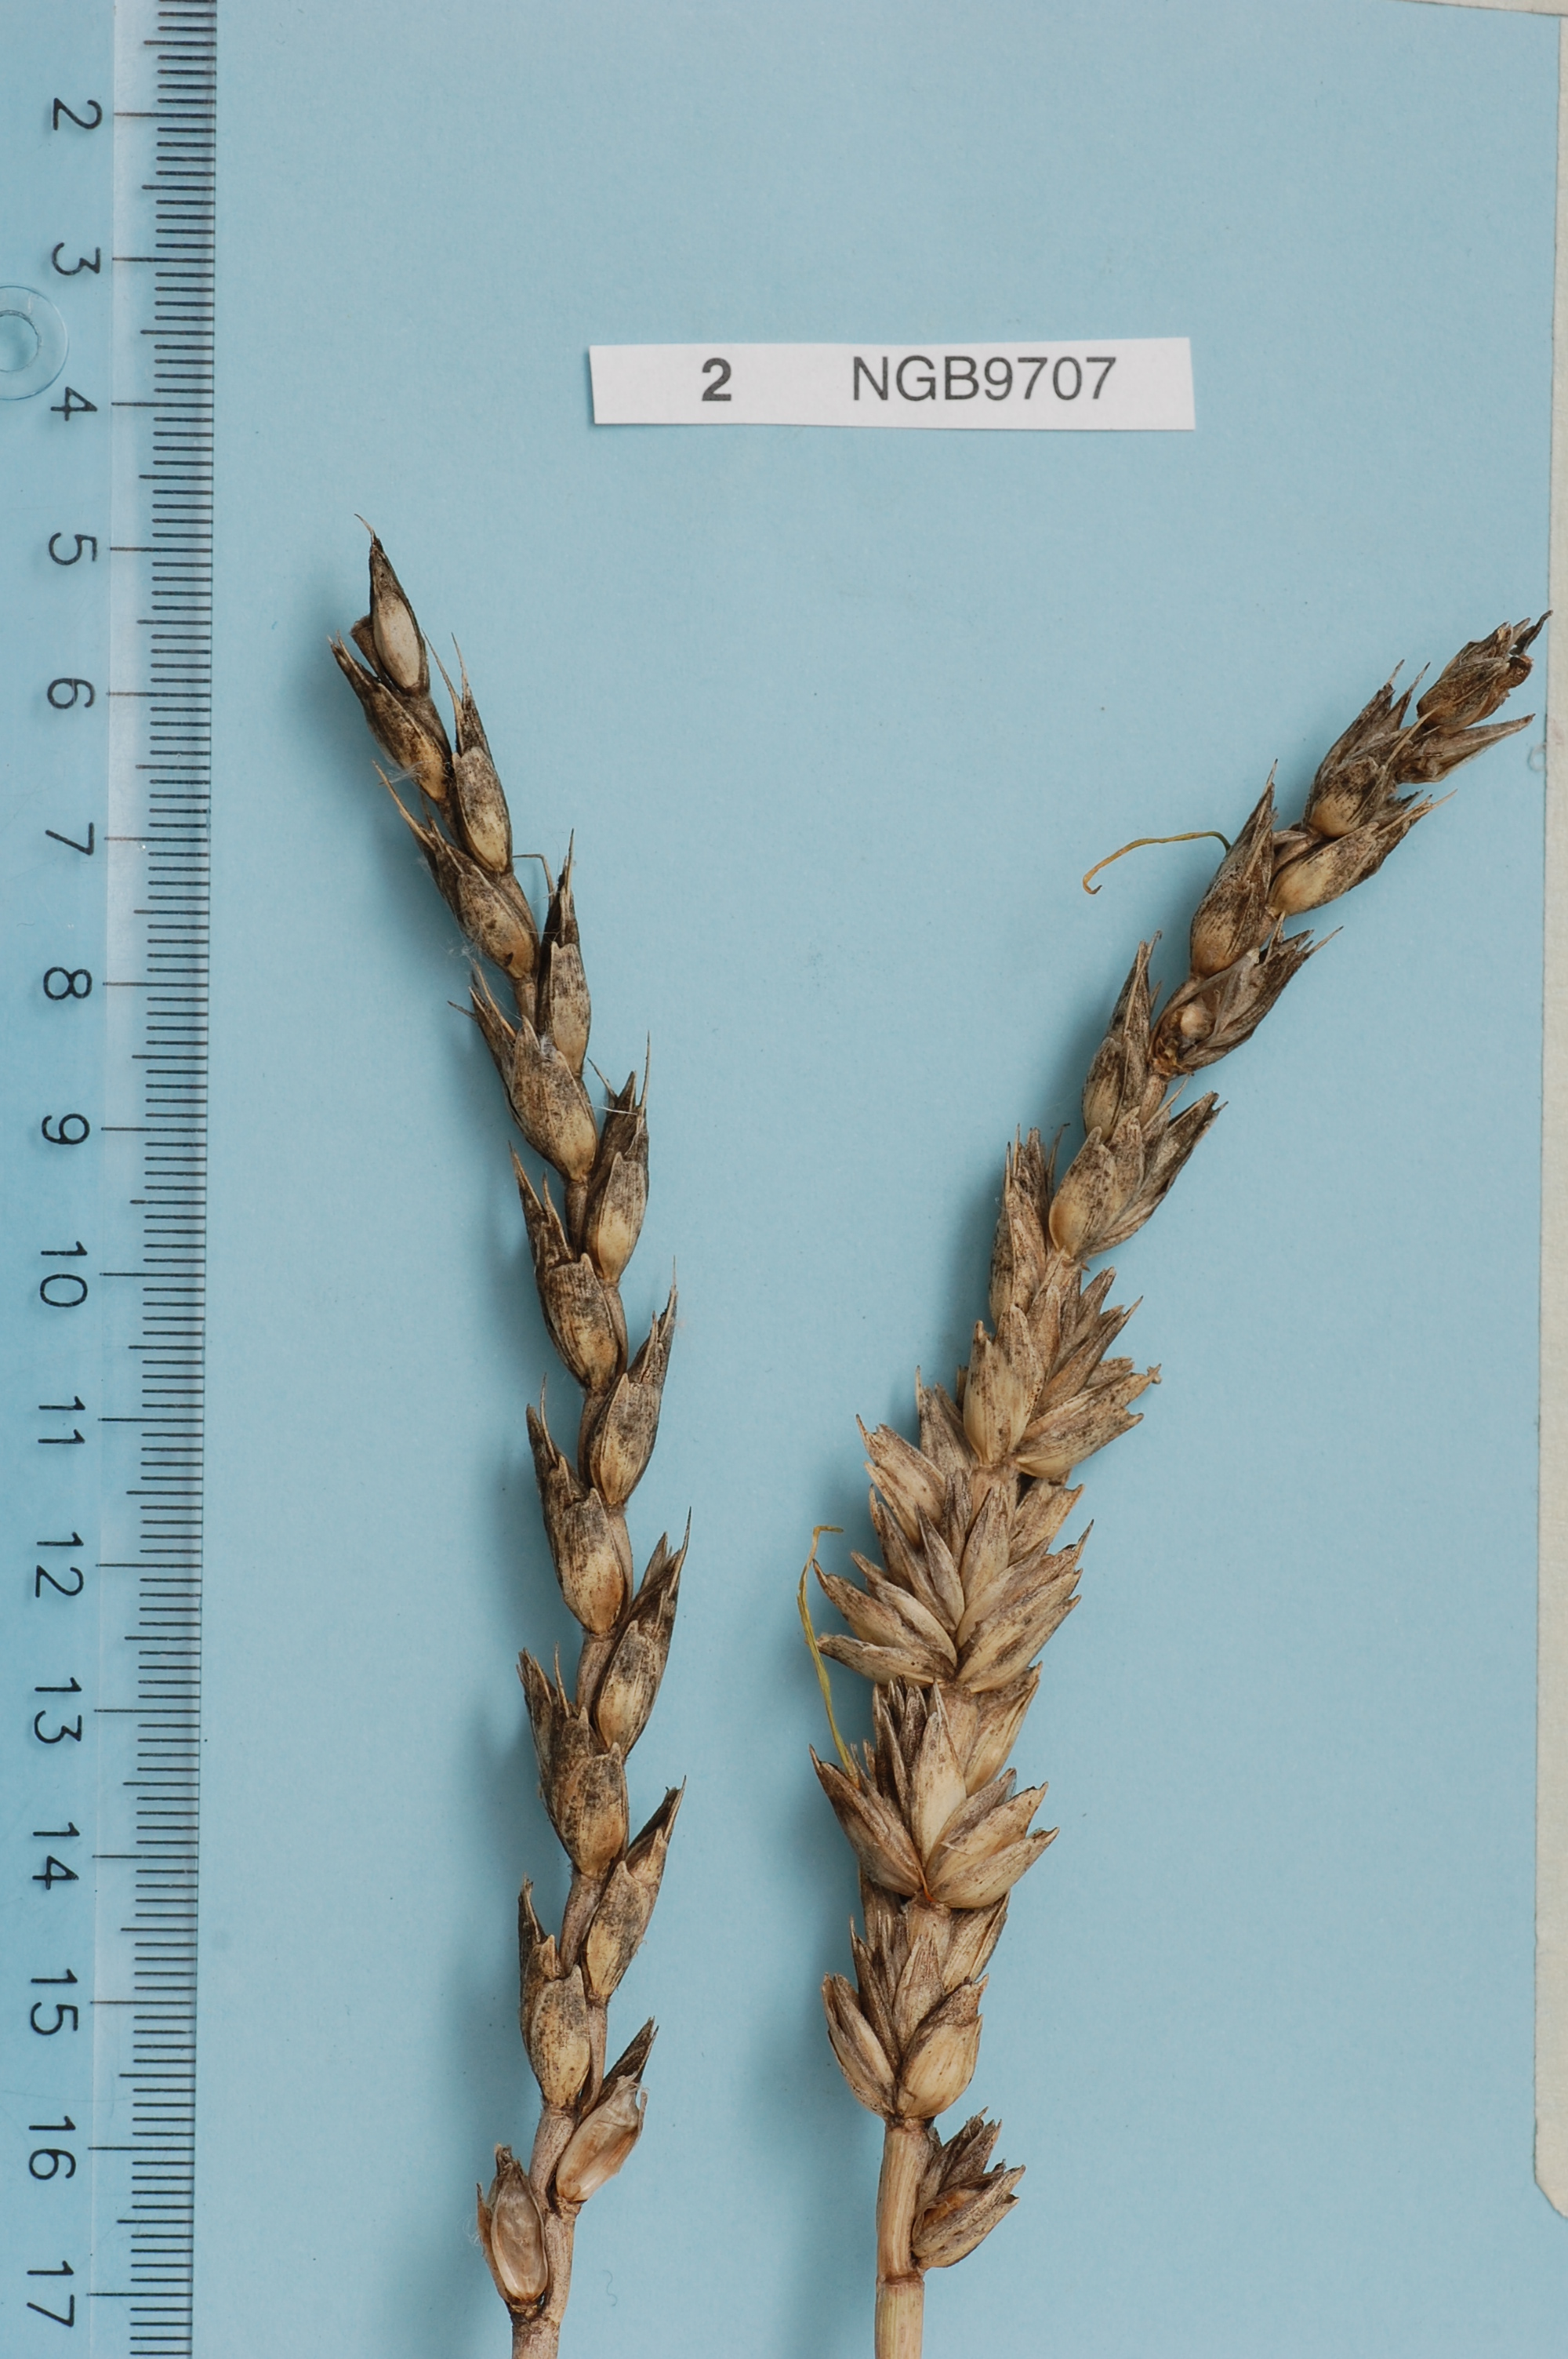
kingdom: Plantae
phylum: Tracheophyta
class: Liliopsida
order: Poales
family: Poaceae
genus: Triticum
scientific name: Triticum aestivum
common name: Common wheat
